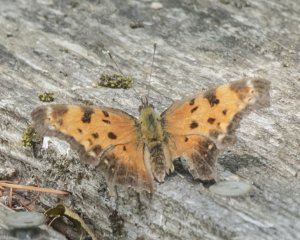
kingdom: Animalia
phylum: Arthropoda
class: Insecta
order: Lepidoptera
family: Nymphalidae
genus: Polygonia
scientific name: Polygonia progne
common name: Gray Comma
